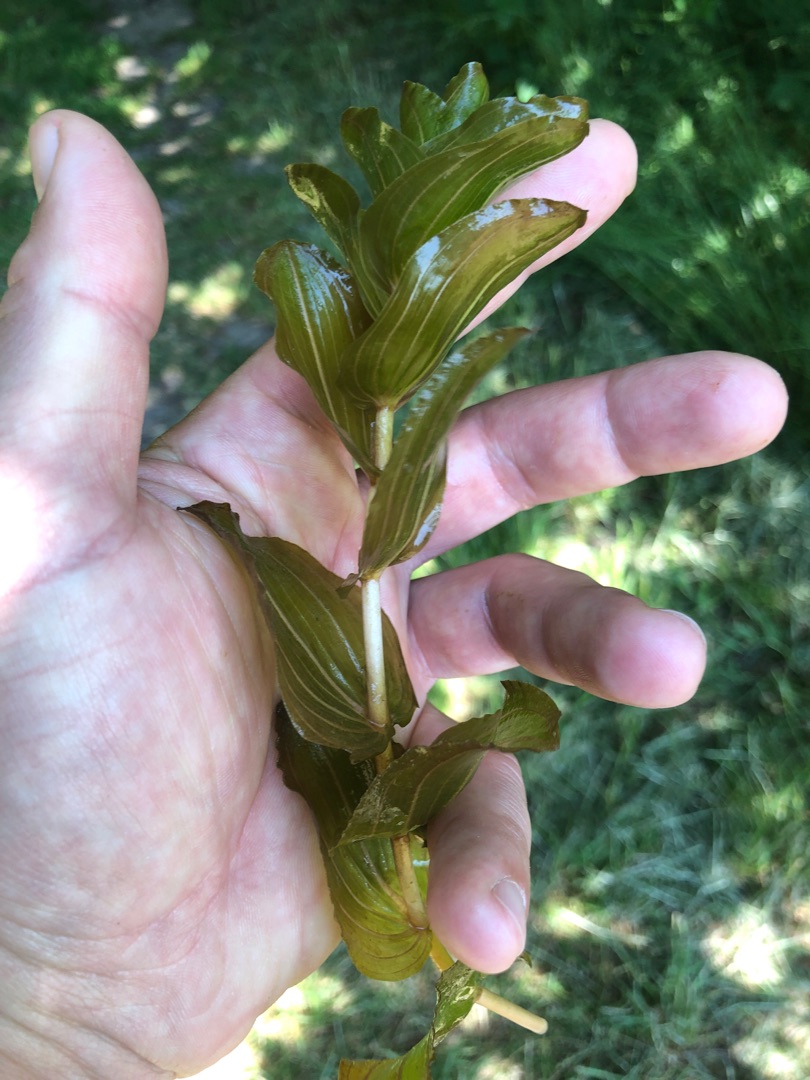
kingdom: Plantae
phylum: Tracheophyta
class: Liliopsida
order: Alismatales
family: Potamogetonaceae
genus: Potamogeton
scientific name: Potamogeton perfoliatus
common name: Hjertebladet vandaks
